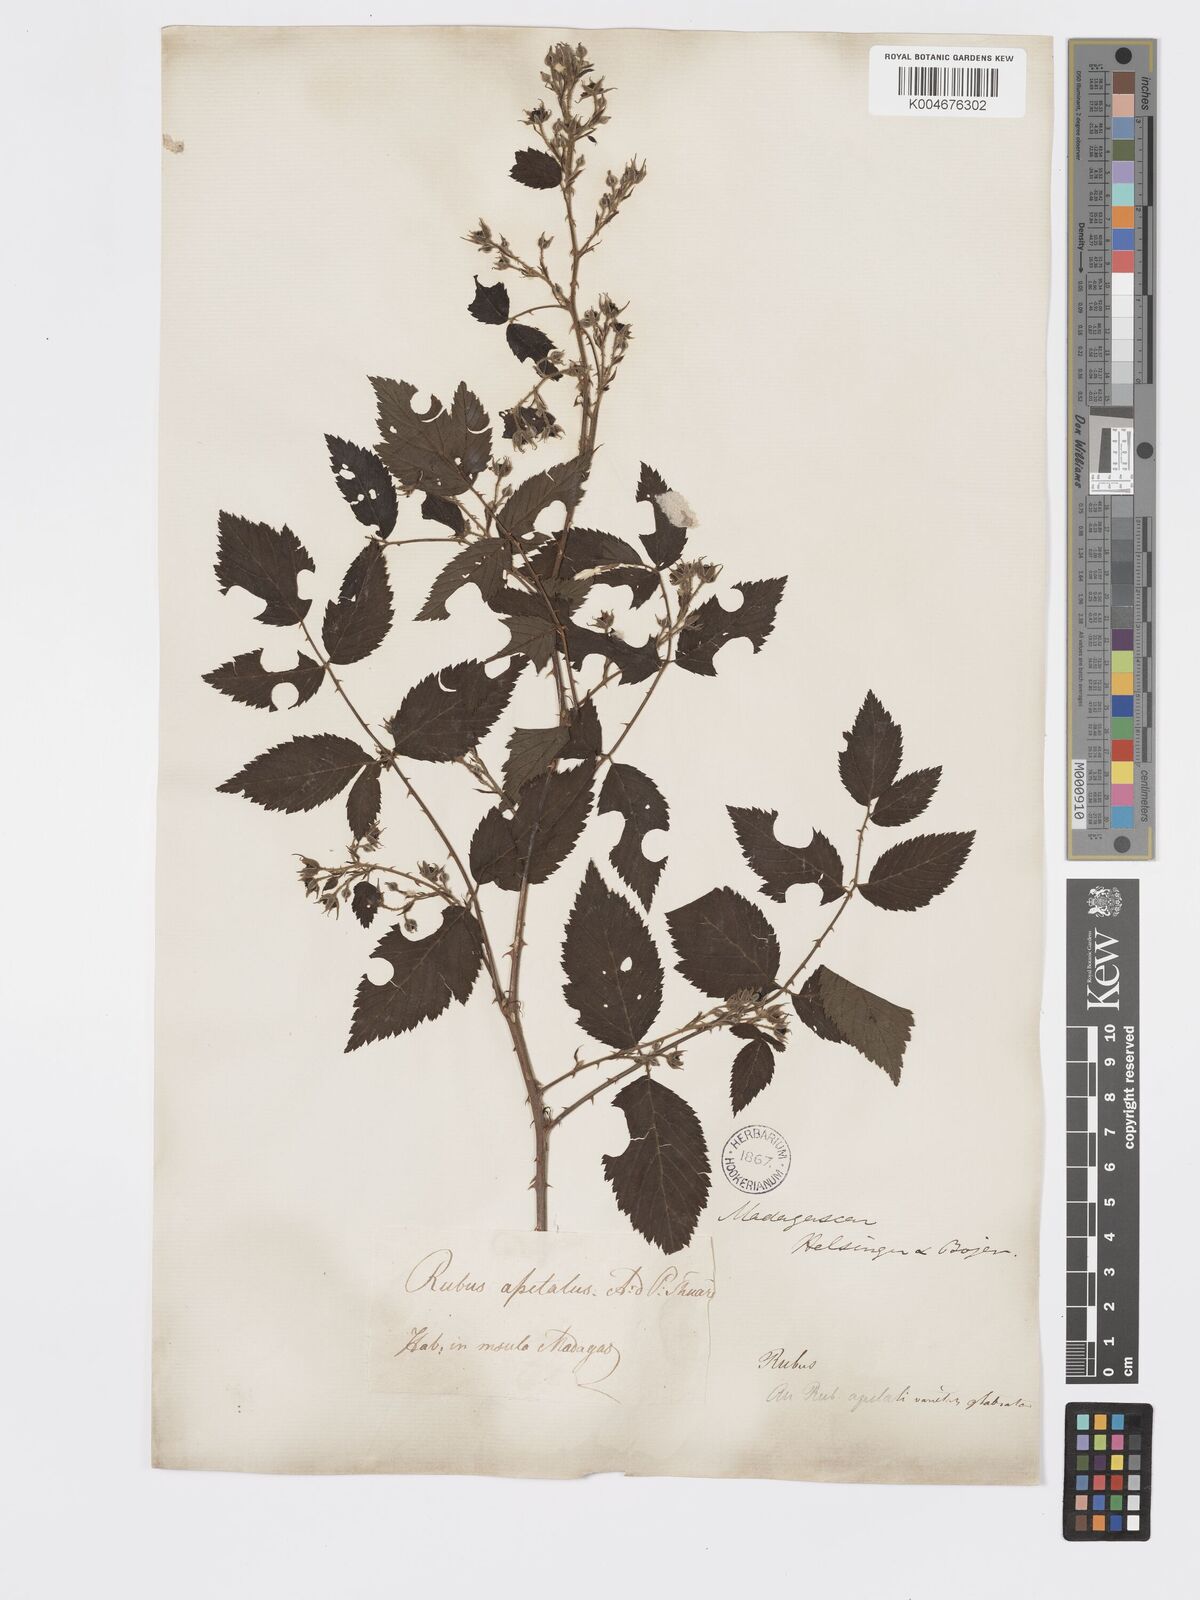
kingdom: Plantae
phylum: Tracheophyta
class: Magnoliopsida
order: Rosales
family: Rosaceae
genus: Rubus
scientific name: Rubus
